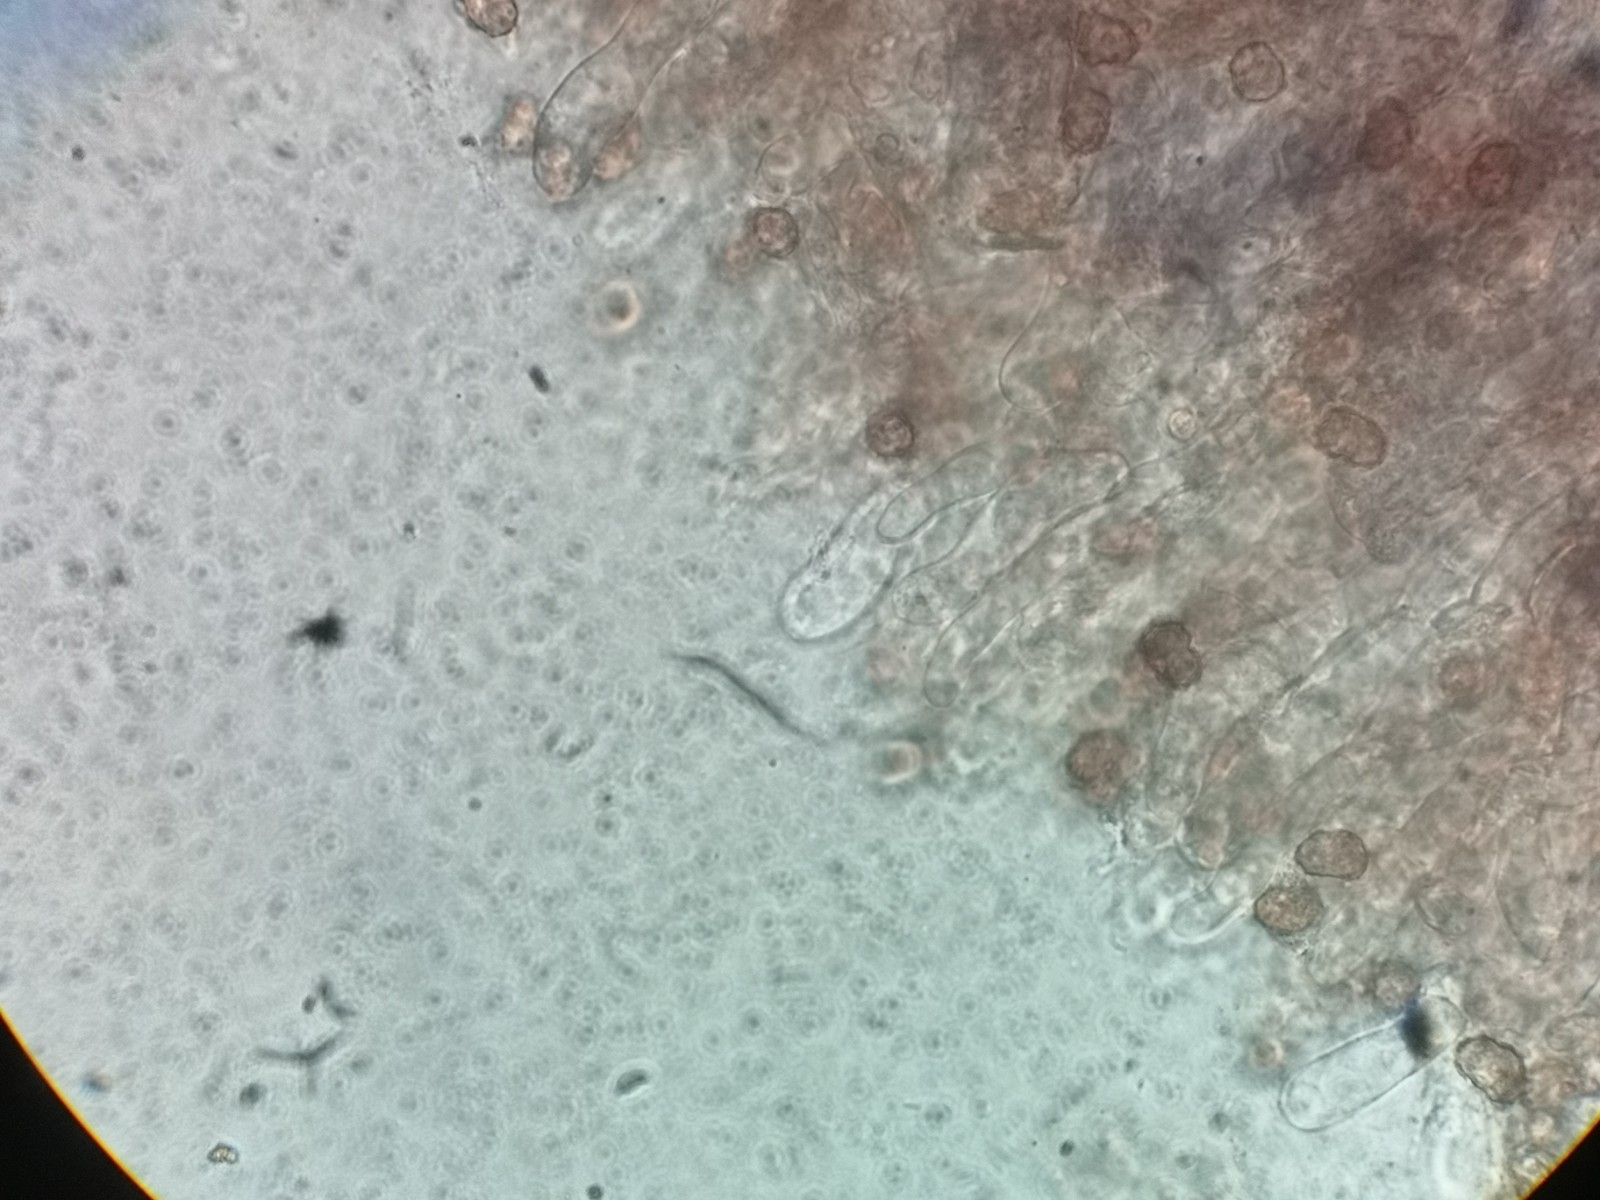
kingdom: Fungi
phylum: Basidiomycota
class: Agaricomycetes
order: Thelephorales
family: Thelephoraceae
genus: Tomentella
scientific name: Tomentella
